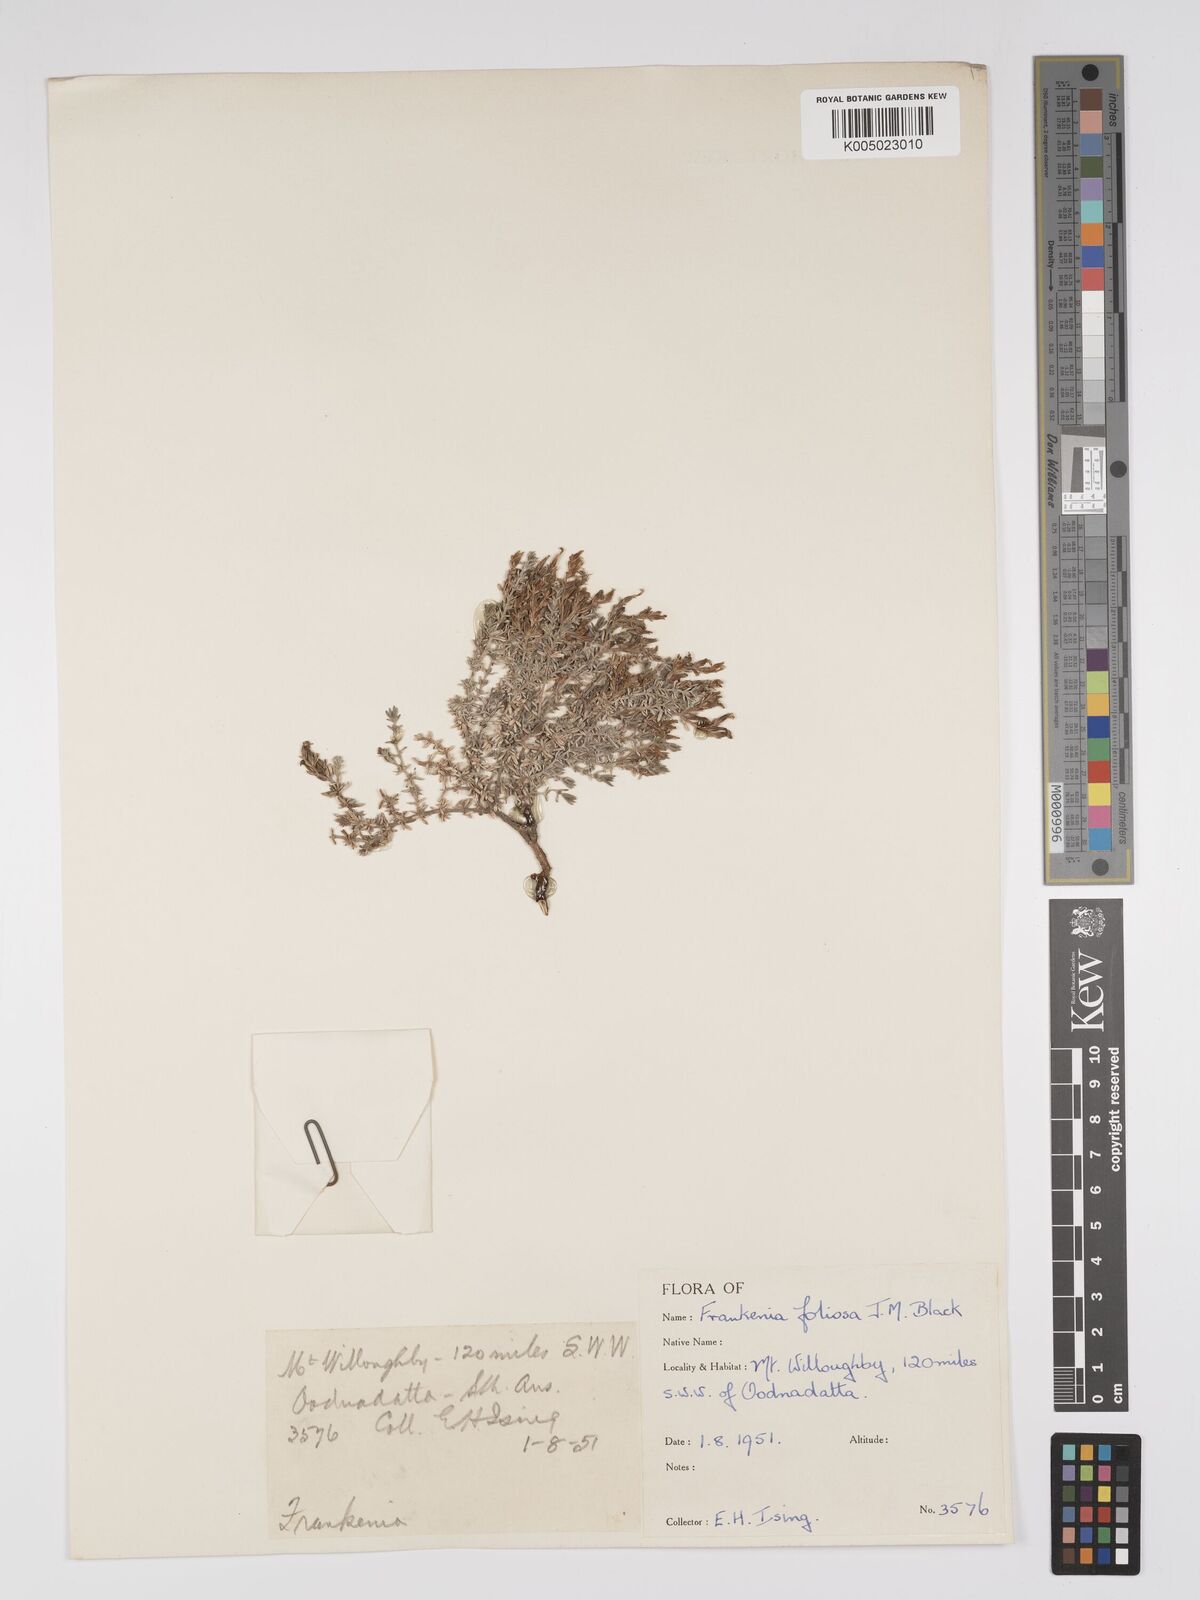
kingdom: Plantae
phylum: Tracheophyta
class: Magnoliopsida
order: Caryophyllales
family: Frankeniaceae
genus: Frankenia
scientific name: Frankenia foliosa
